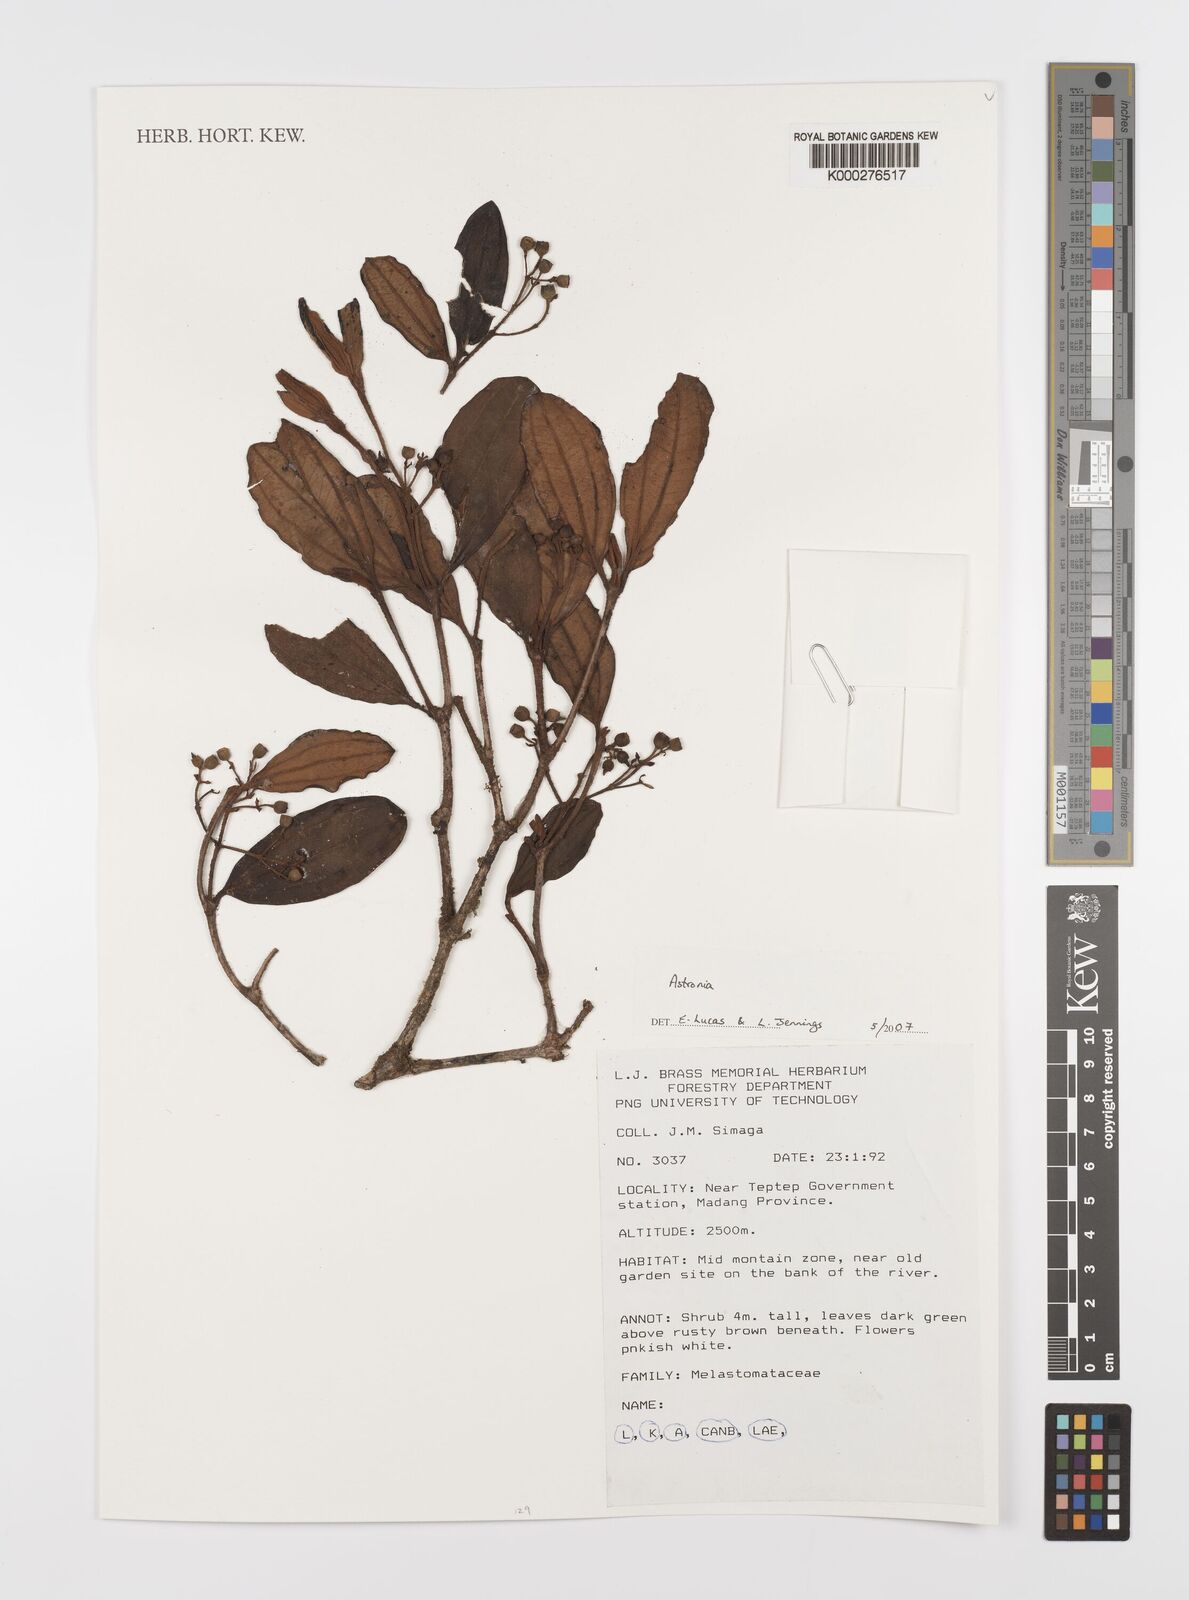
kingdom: Plantae
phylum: Tracheophyta
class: Magnoliopsida
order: Myrtales
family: Melastomataceae
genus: Astronia
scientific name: Astronia
